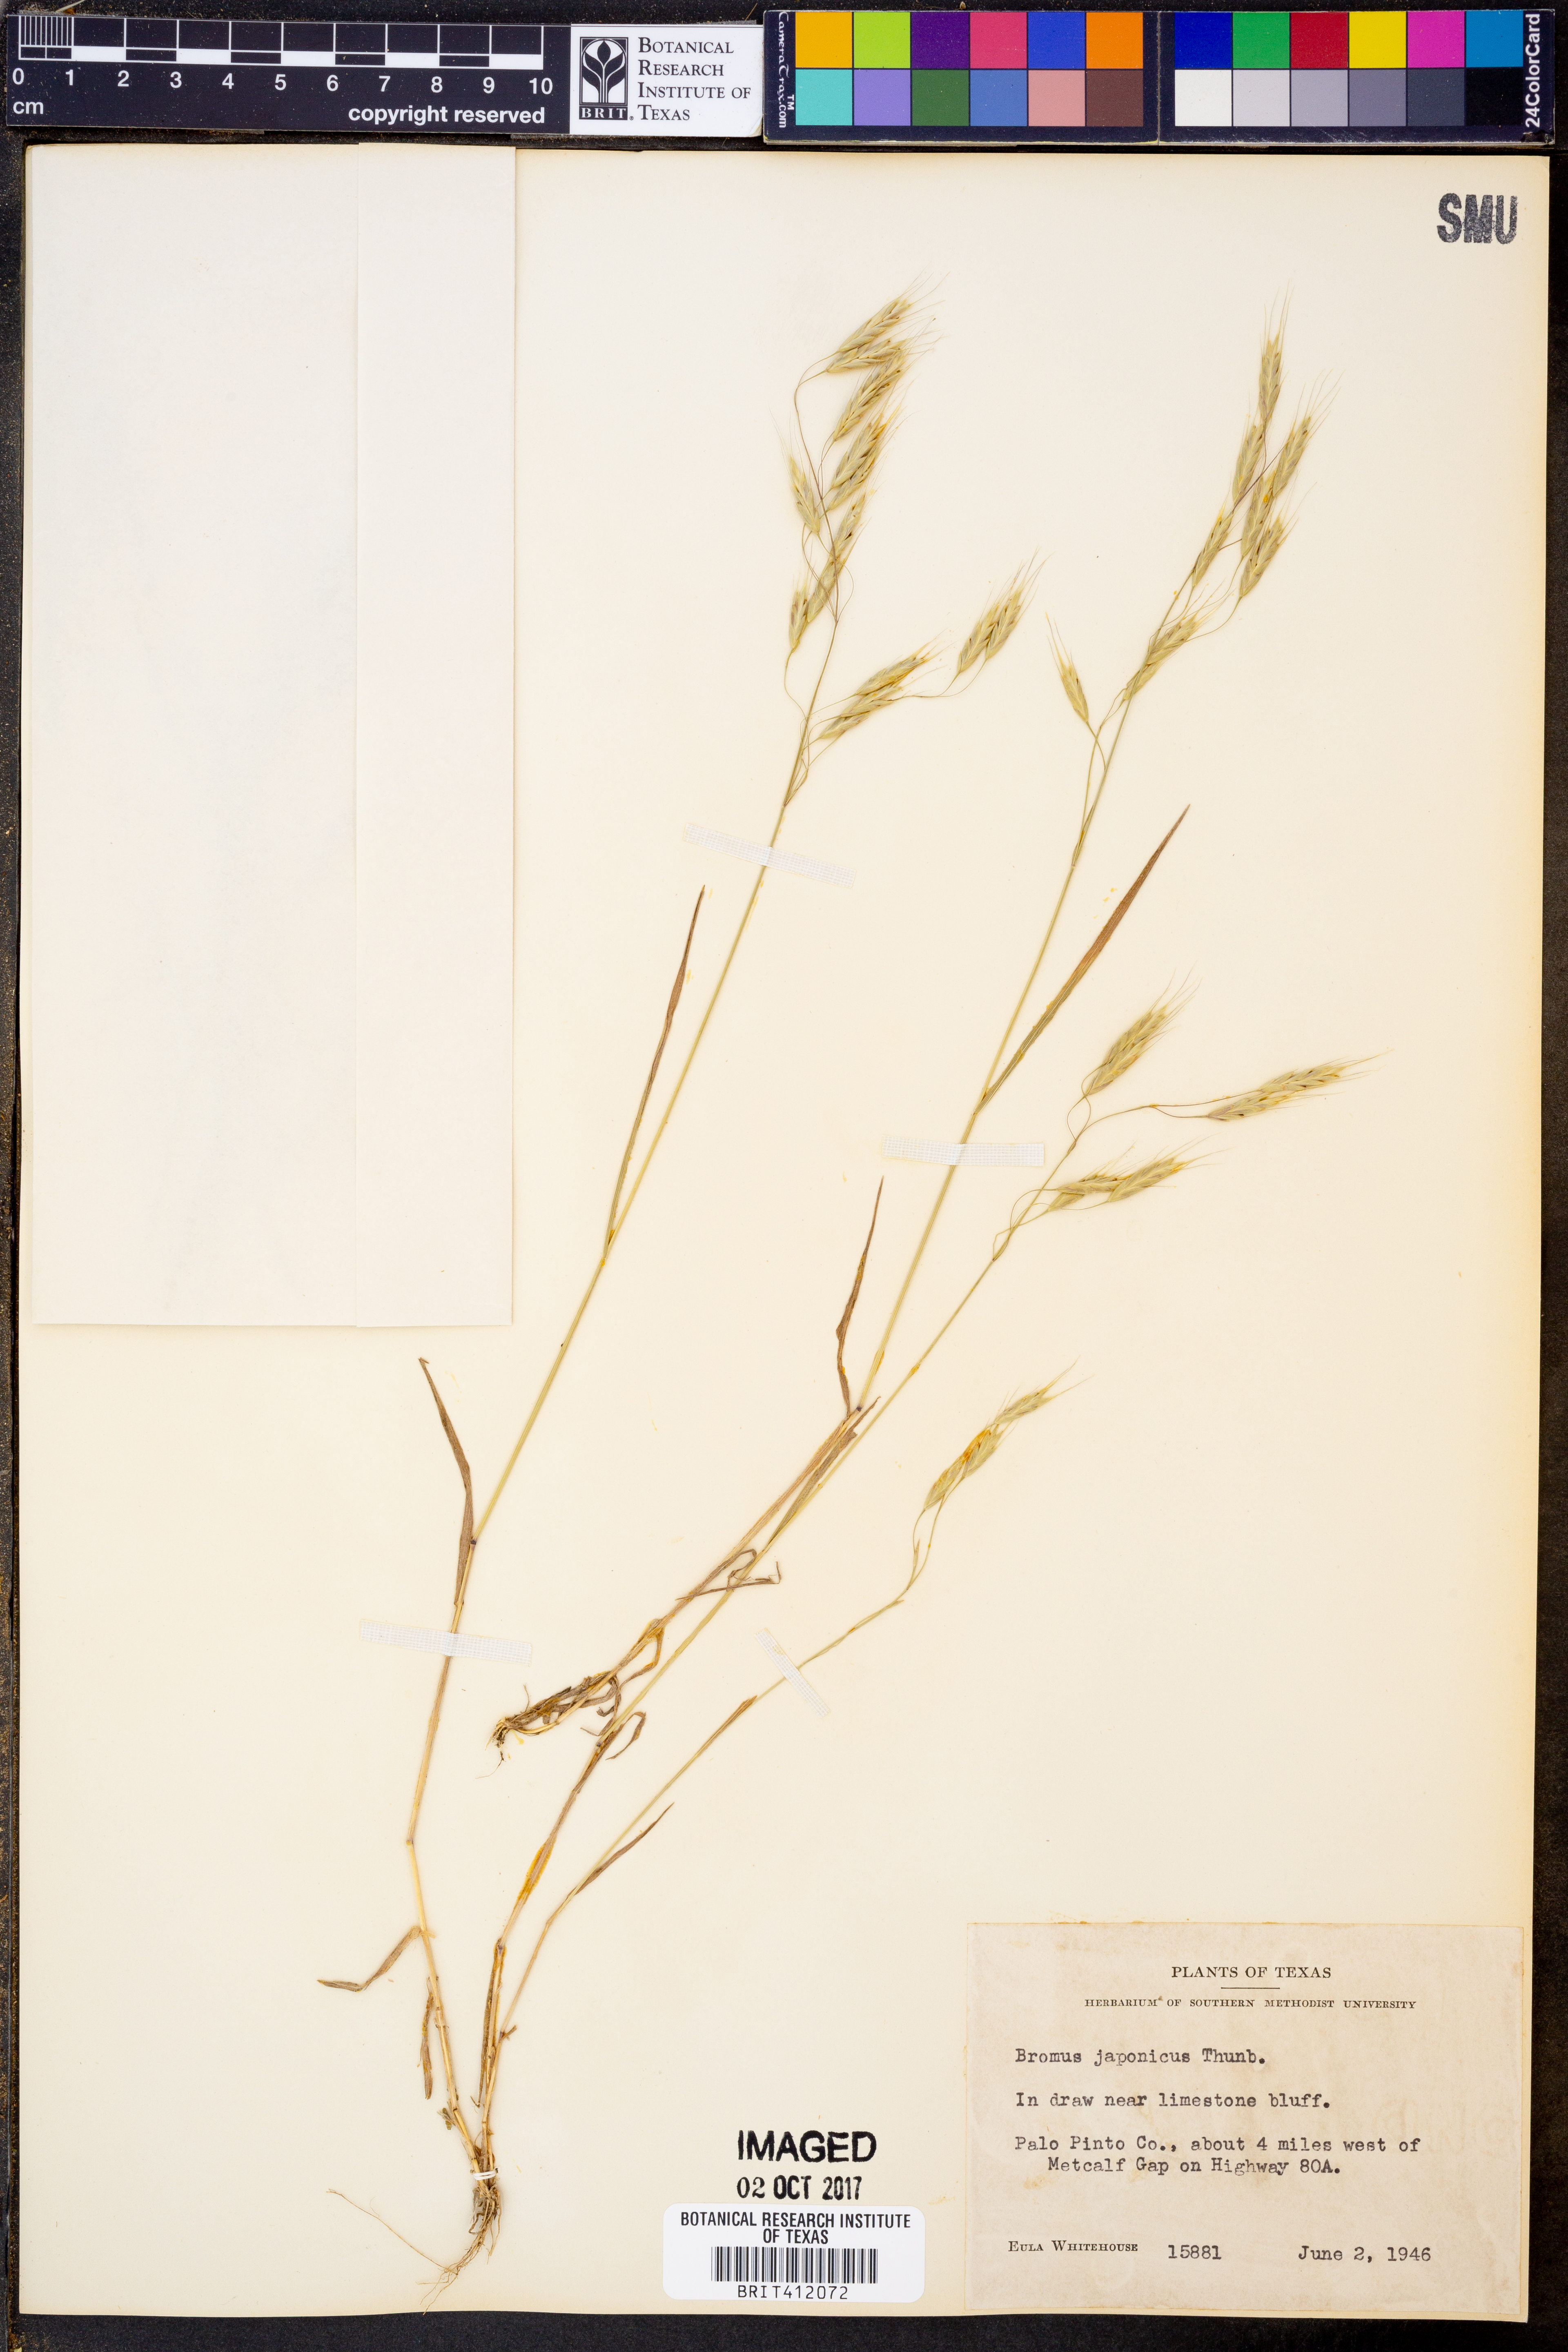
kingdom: Plantae
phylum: Tracheophyta
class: Liliopsida
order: Poales
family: Poaceae
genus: Bromus
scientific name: Bromus japonicus
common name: Japanese brome
